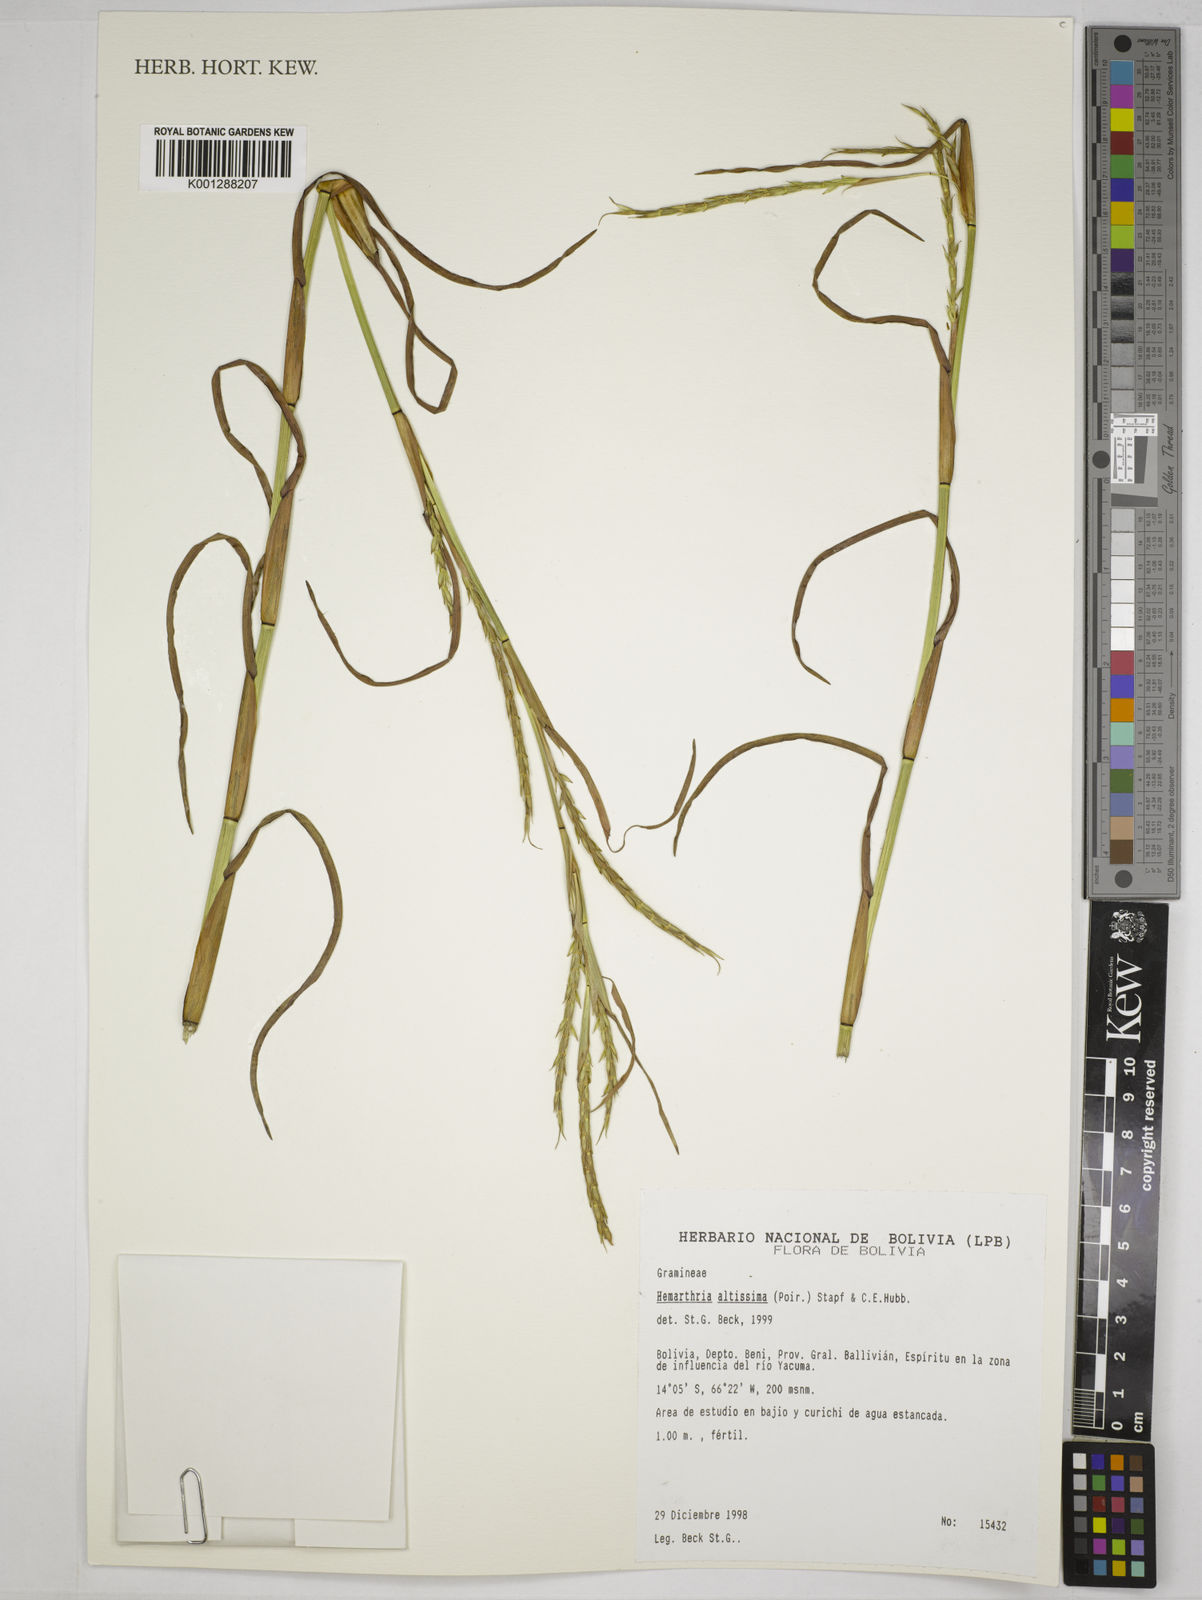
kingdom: Plantae
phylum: Tracheophyta
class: Liliopsida
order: Poales
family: Poaceae
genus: Hemarthria
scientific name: Hemarthria altissima
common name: African jointgrass
